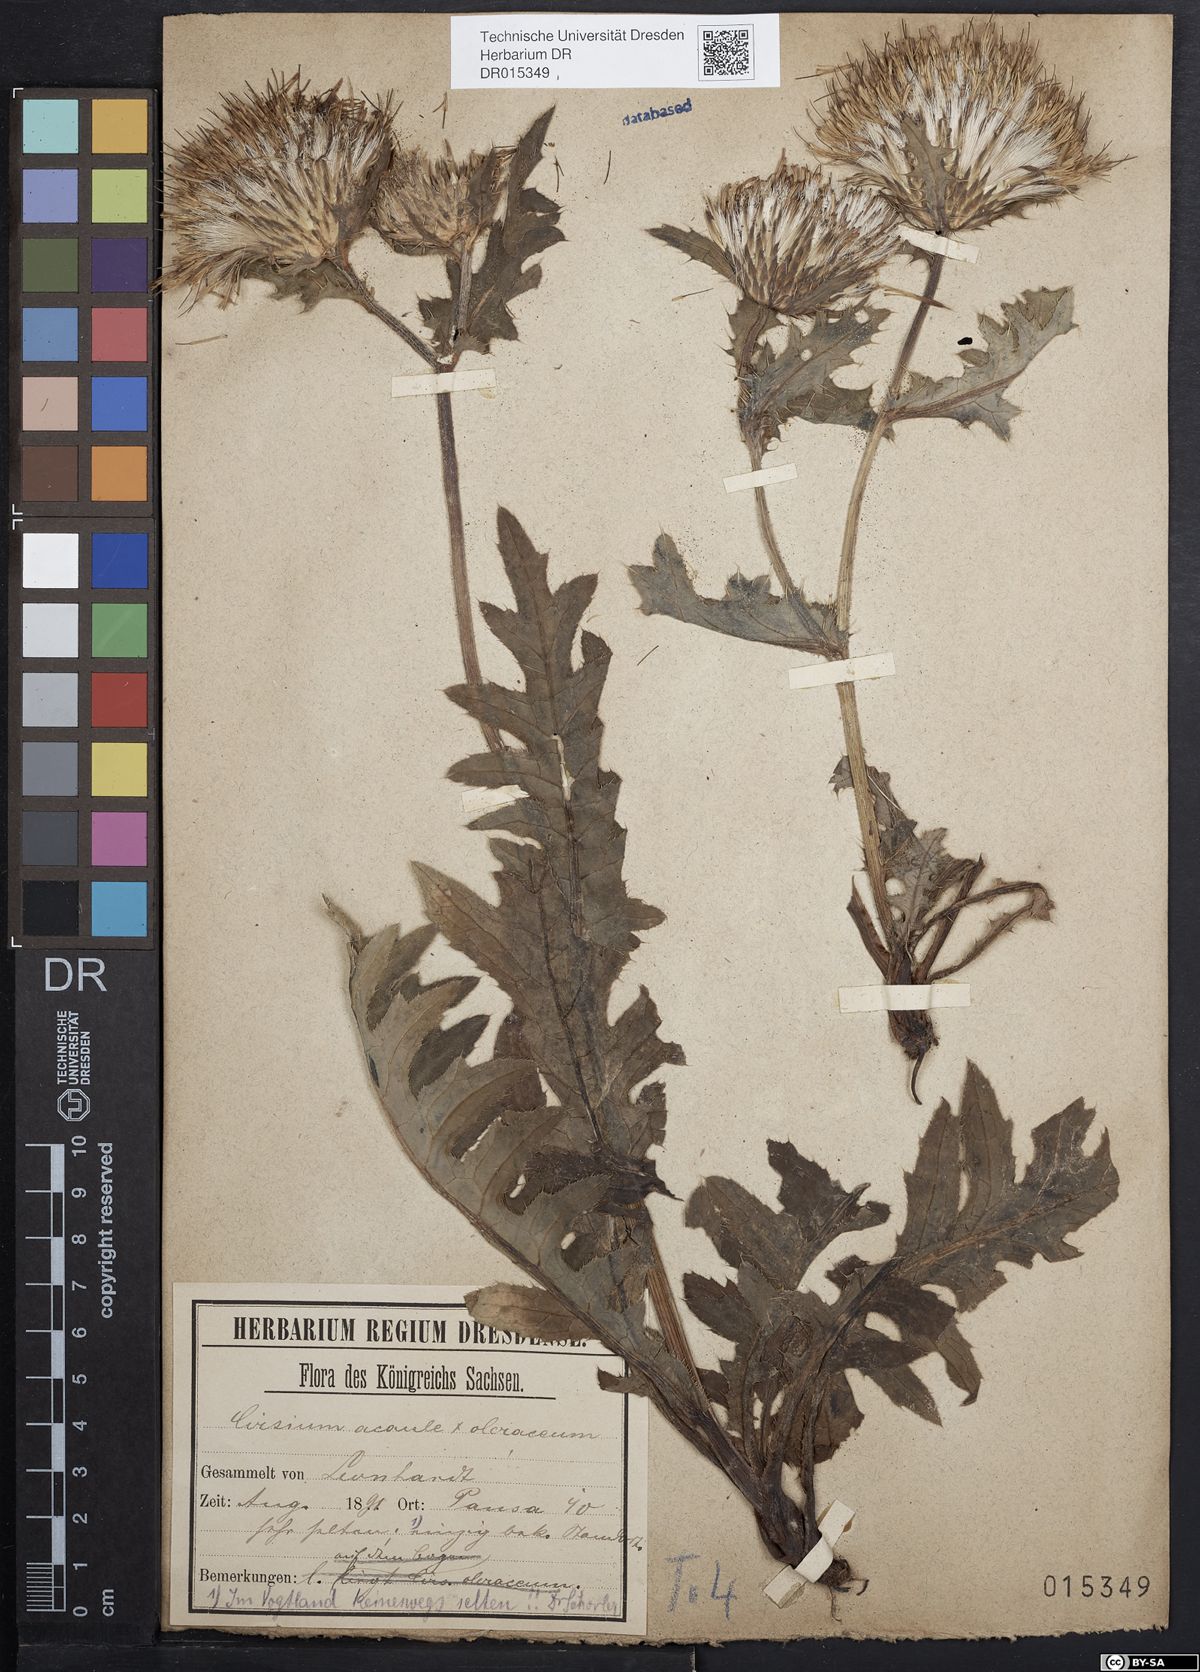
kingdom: Plantae
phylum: Tracheophyta
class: Magnoliopsida
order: Asterales
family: Asteraceae
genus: Cirsium
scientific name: Cirsium rigens
